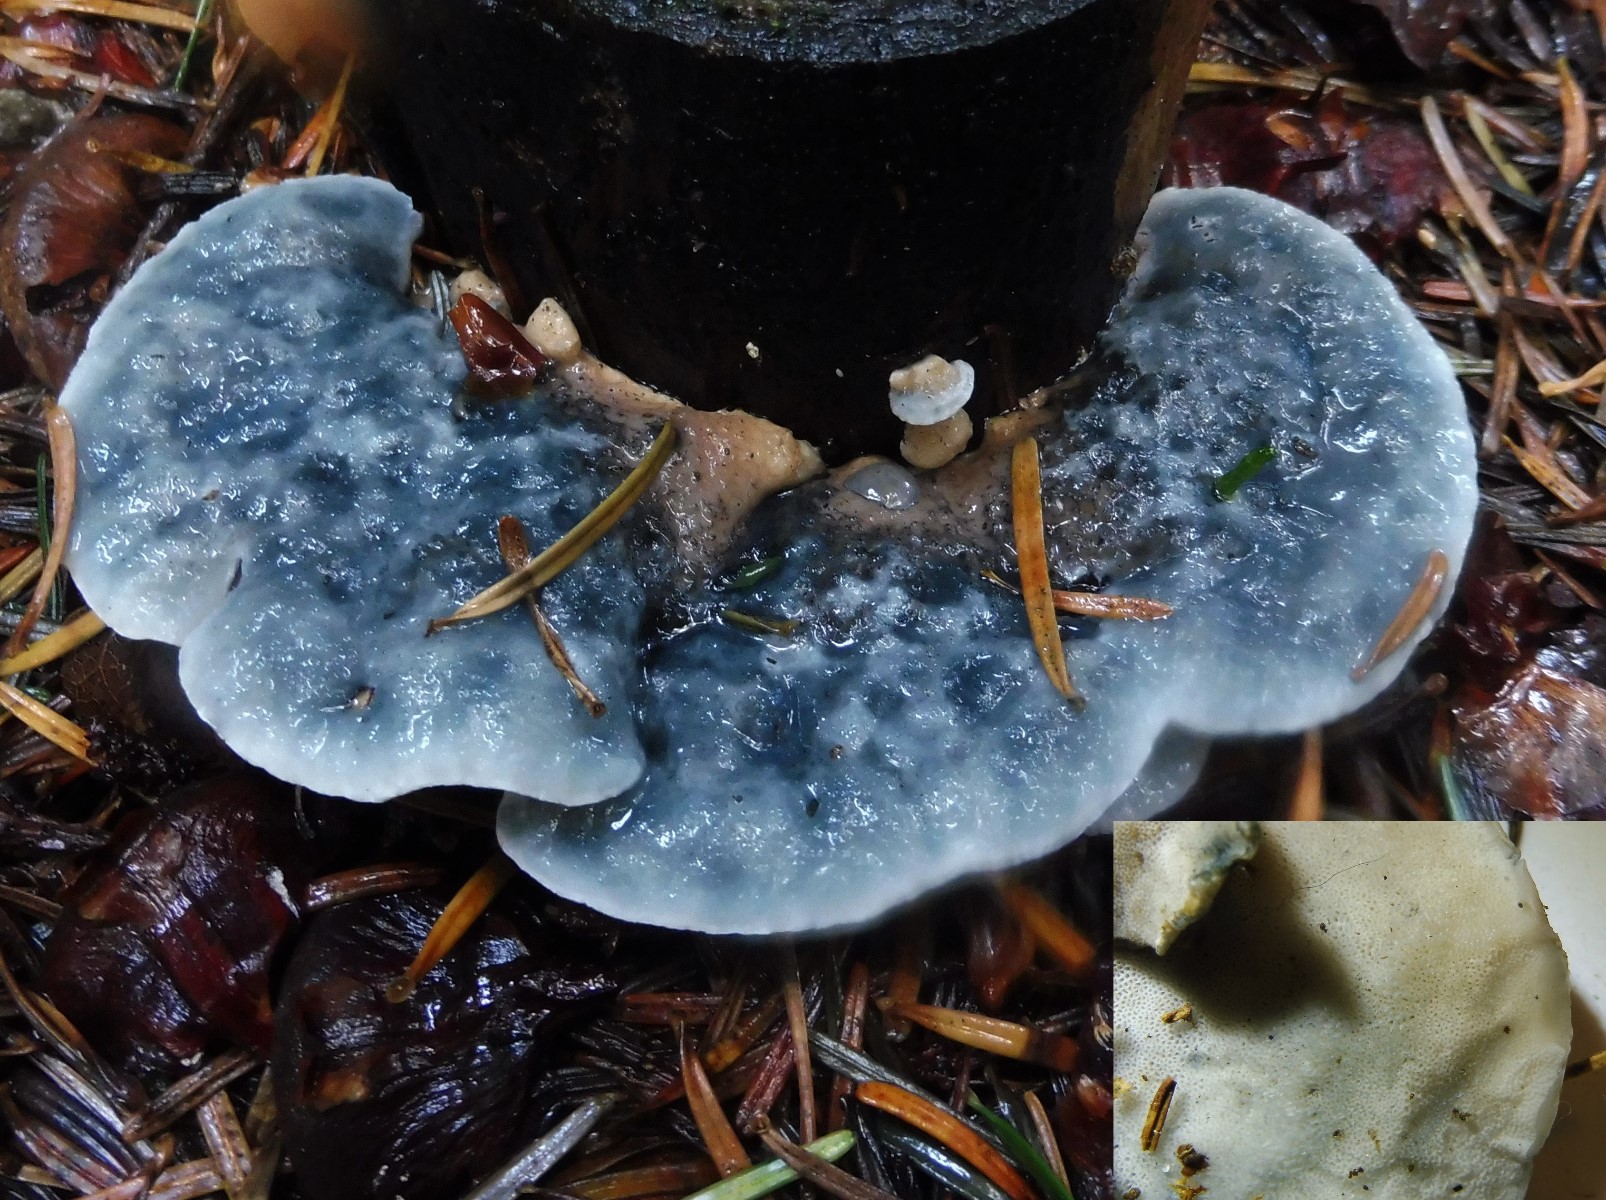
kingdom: Fungi
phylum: Basidiomycota
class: Agaricomycetes
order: Polyporales
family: Polyporaceae
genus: Cyanosporus
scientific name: Cyanosporus caesius
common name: blålig kødporesvamp
